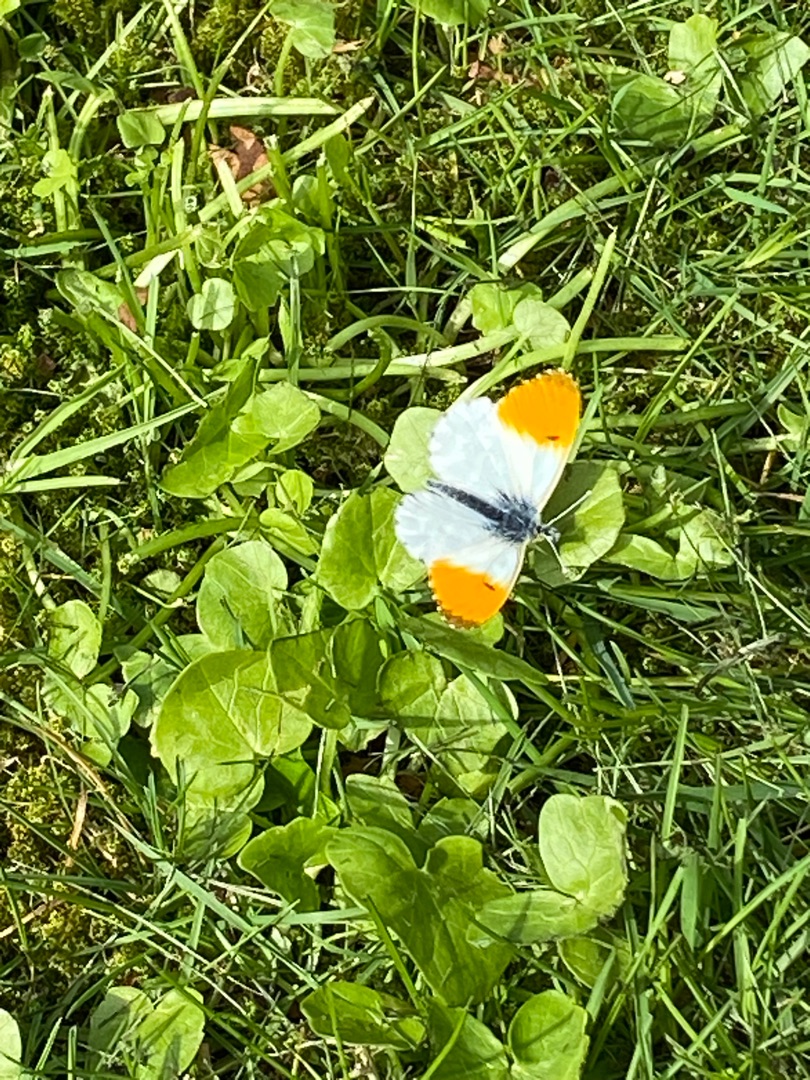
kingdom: Animalia
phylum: Arthropoda
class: Insecta
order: Lepidoptera
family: Pieridae
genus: Anthocharis
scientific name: Anthocharis cardamines
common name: Aurora
